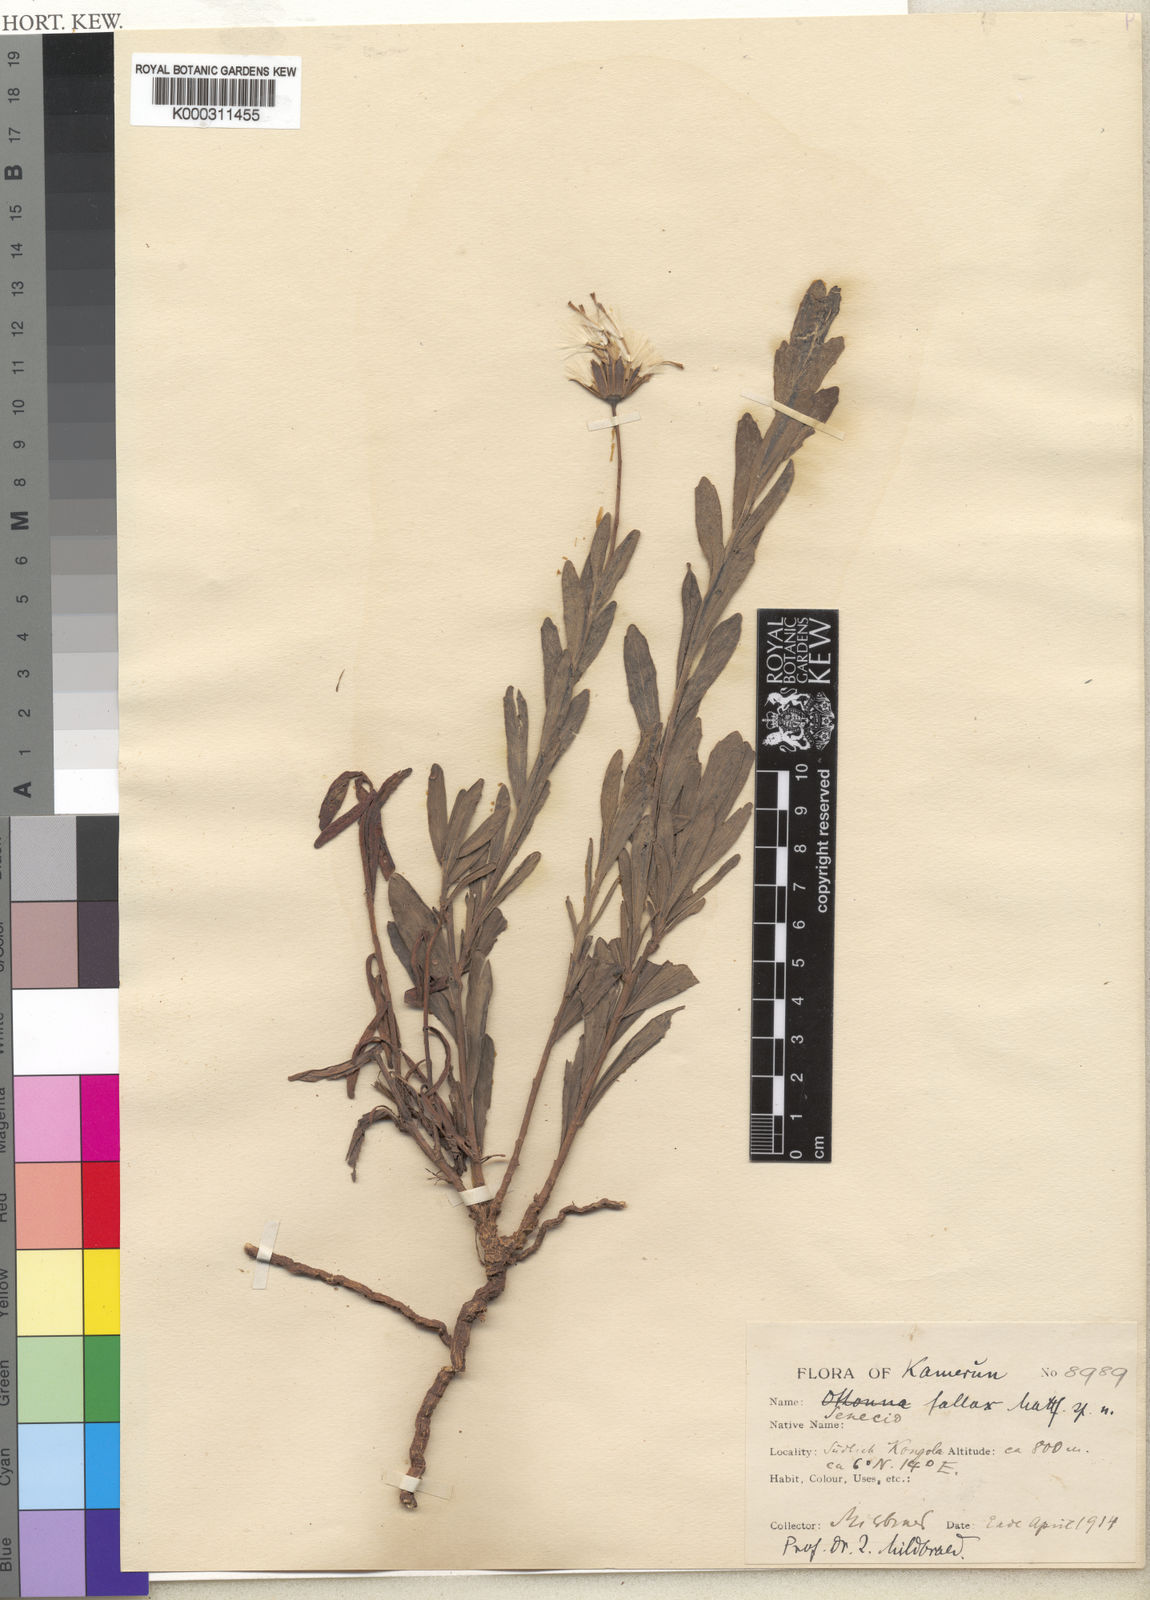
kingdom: Plantae
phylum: Tracheophyta
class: Magnoliopsida
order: Asterales
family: Asteraceae
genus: Emilia
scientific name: Emilia fallax
